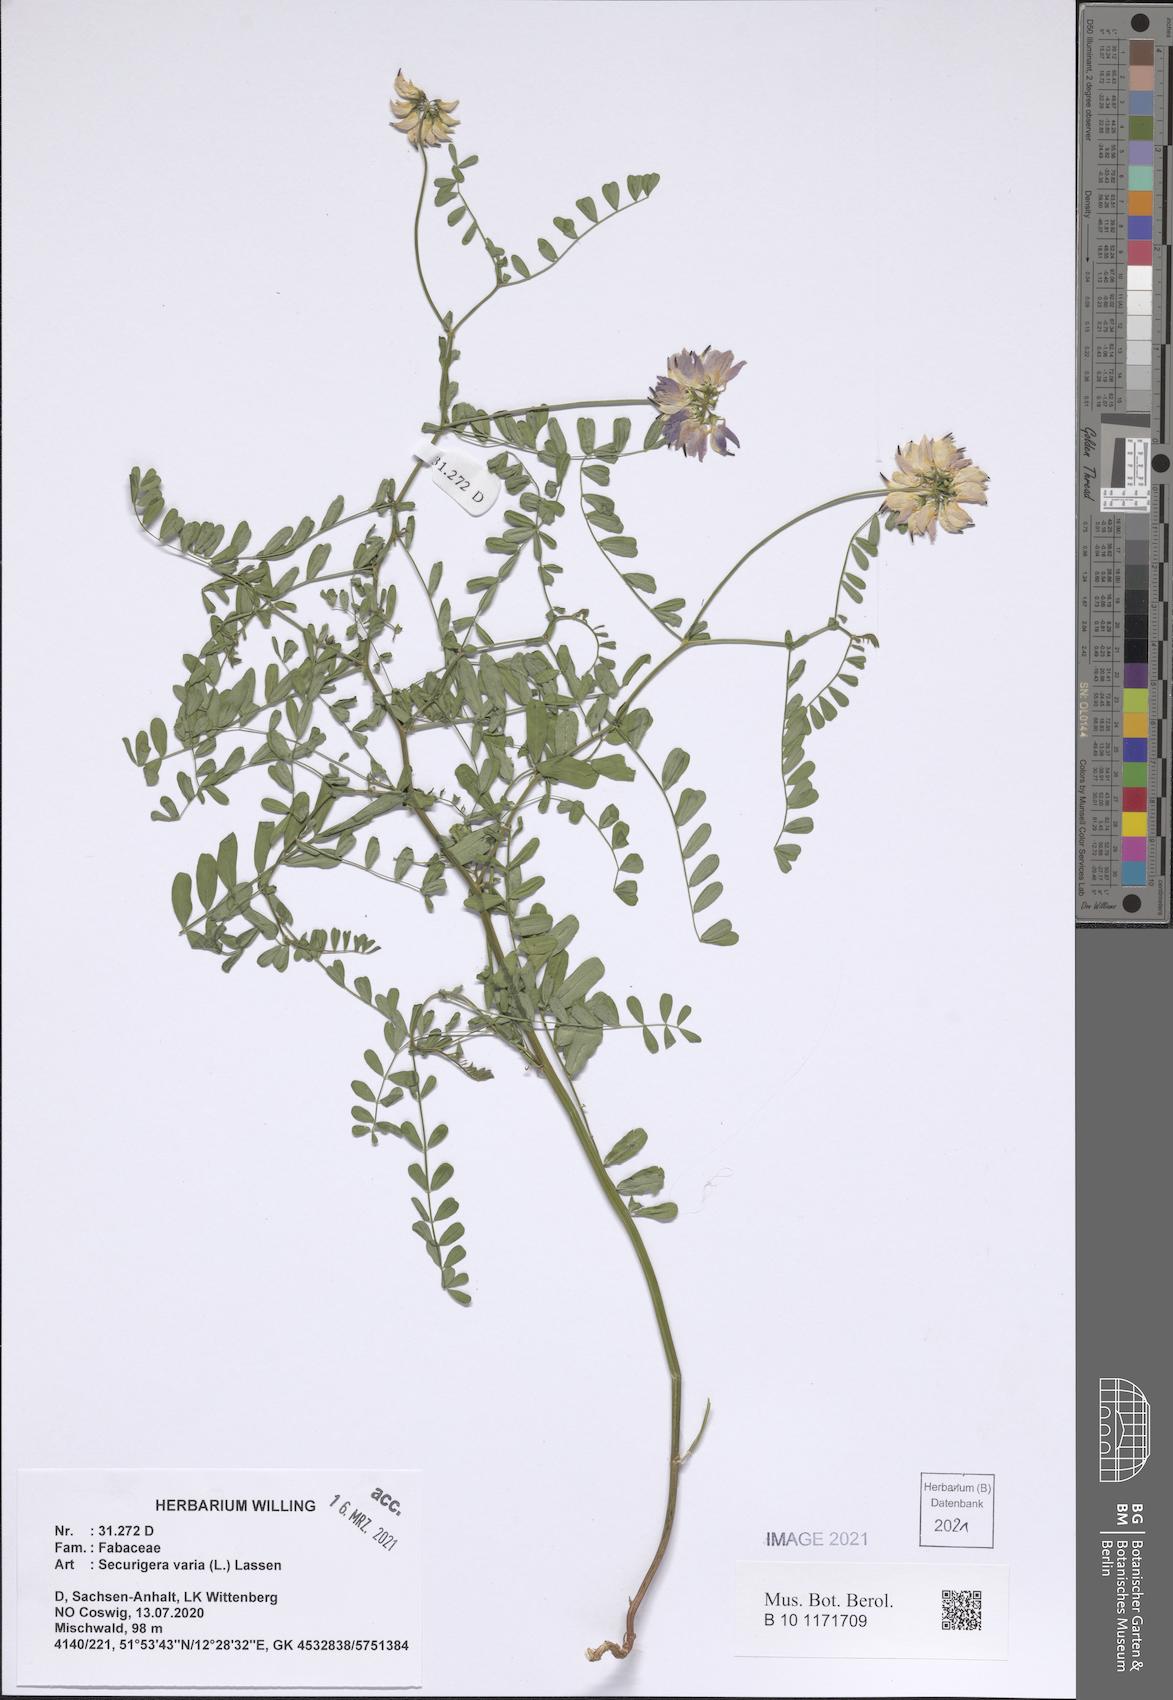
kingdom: Plantae
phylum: Tracheophyta
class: Magnoliopsida
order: Fabales
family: Fabaceae
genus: Coronilla
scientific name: Coronilla varia
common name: Crownvetch
